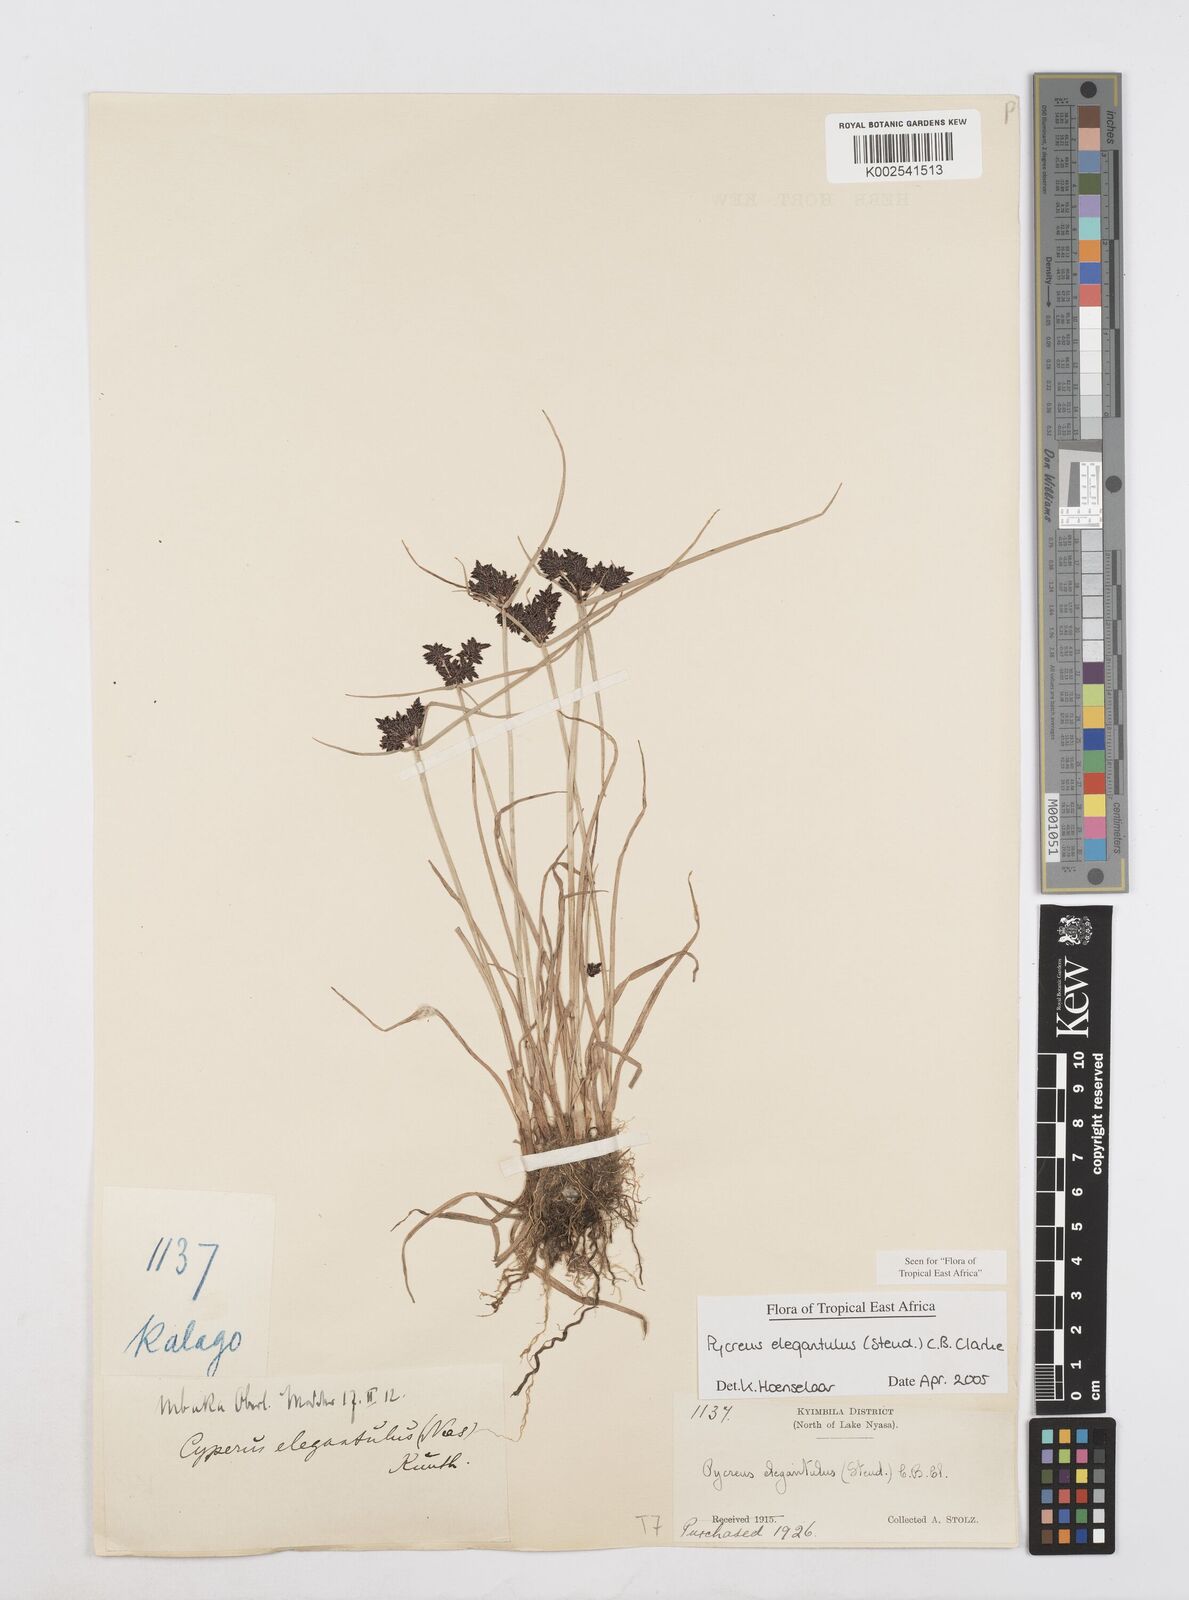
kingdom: Plantae
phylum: Tracheophyta
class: Liliopsida
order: Poales
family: Cyperaceae
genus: Cyperus
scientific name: Cyperus elegantulus
